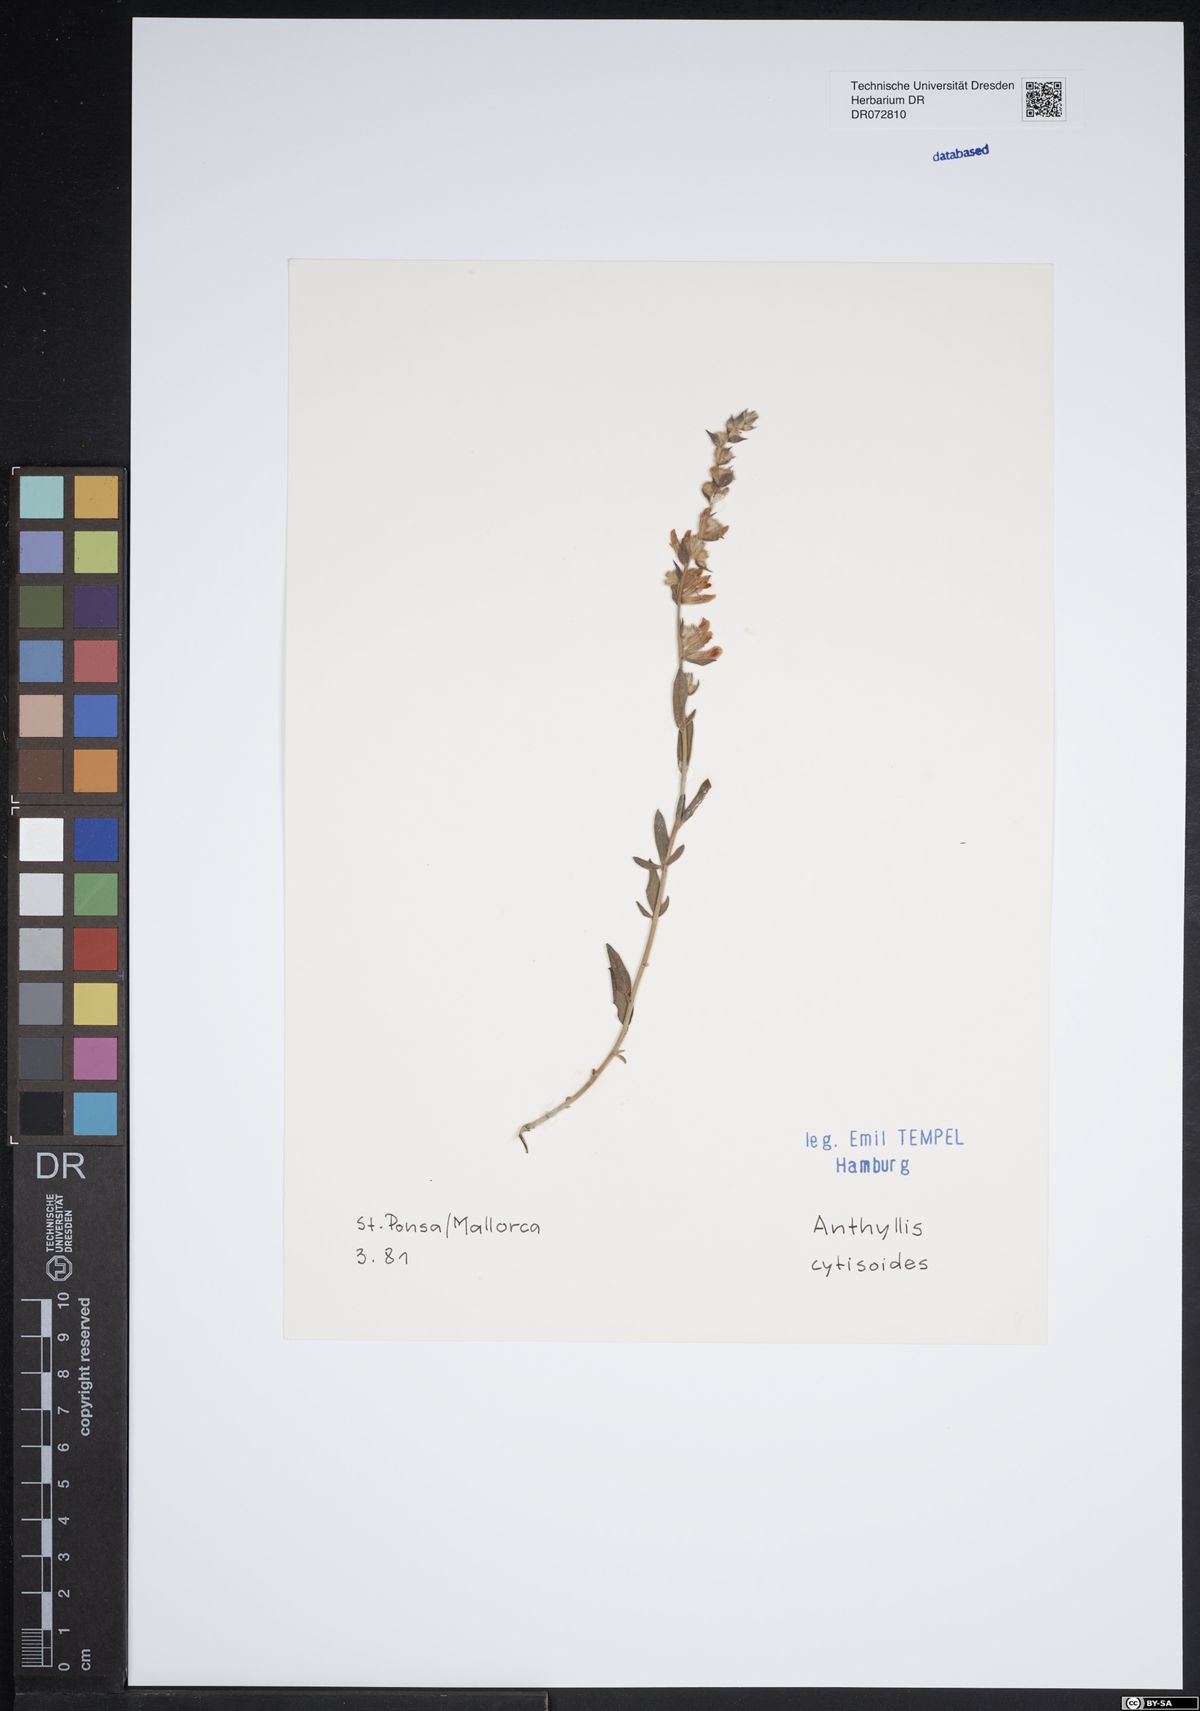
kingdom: Plantae
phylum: Tracheophyta
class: Magnoliopsida
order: Fabales
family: Fabaceae
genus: Anthyllis
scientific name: Anthyllis cytisoides
